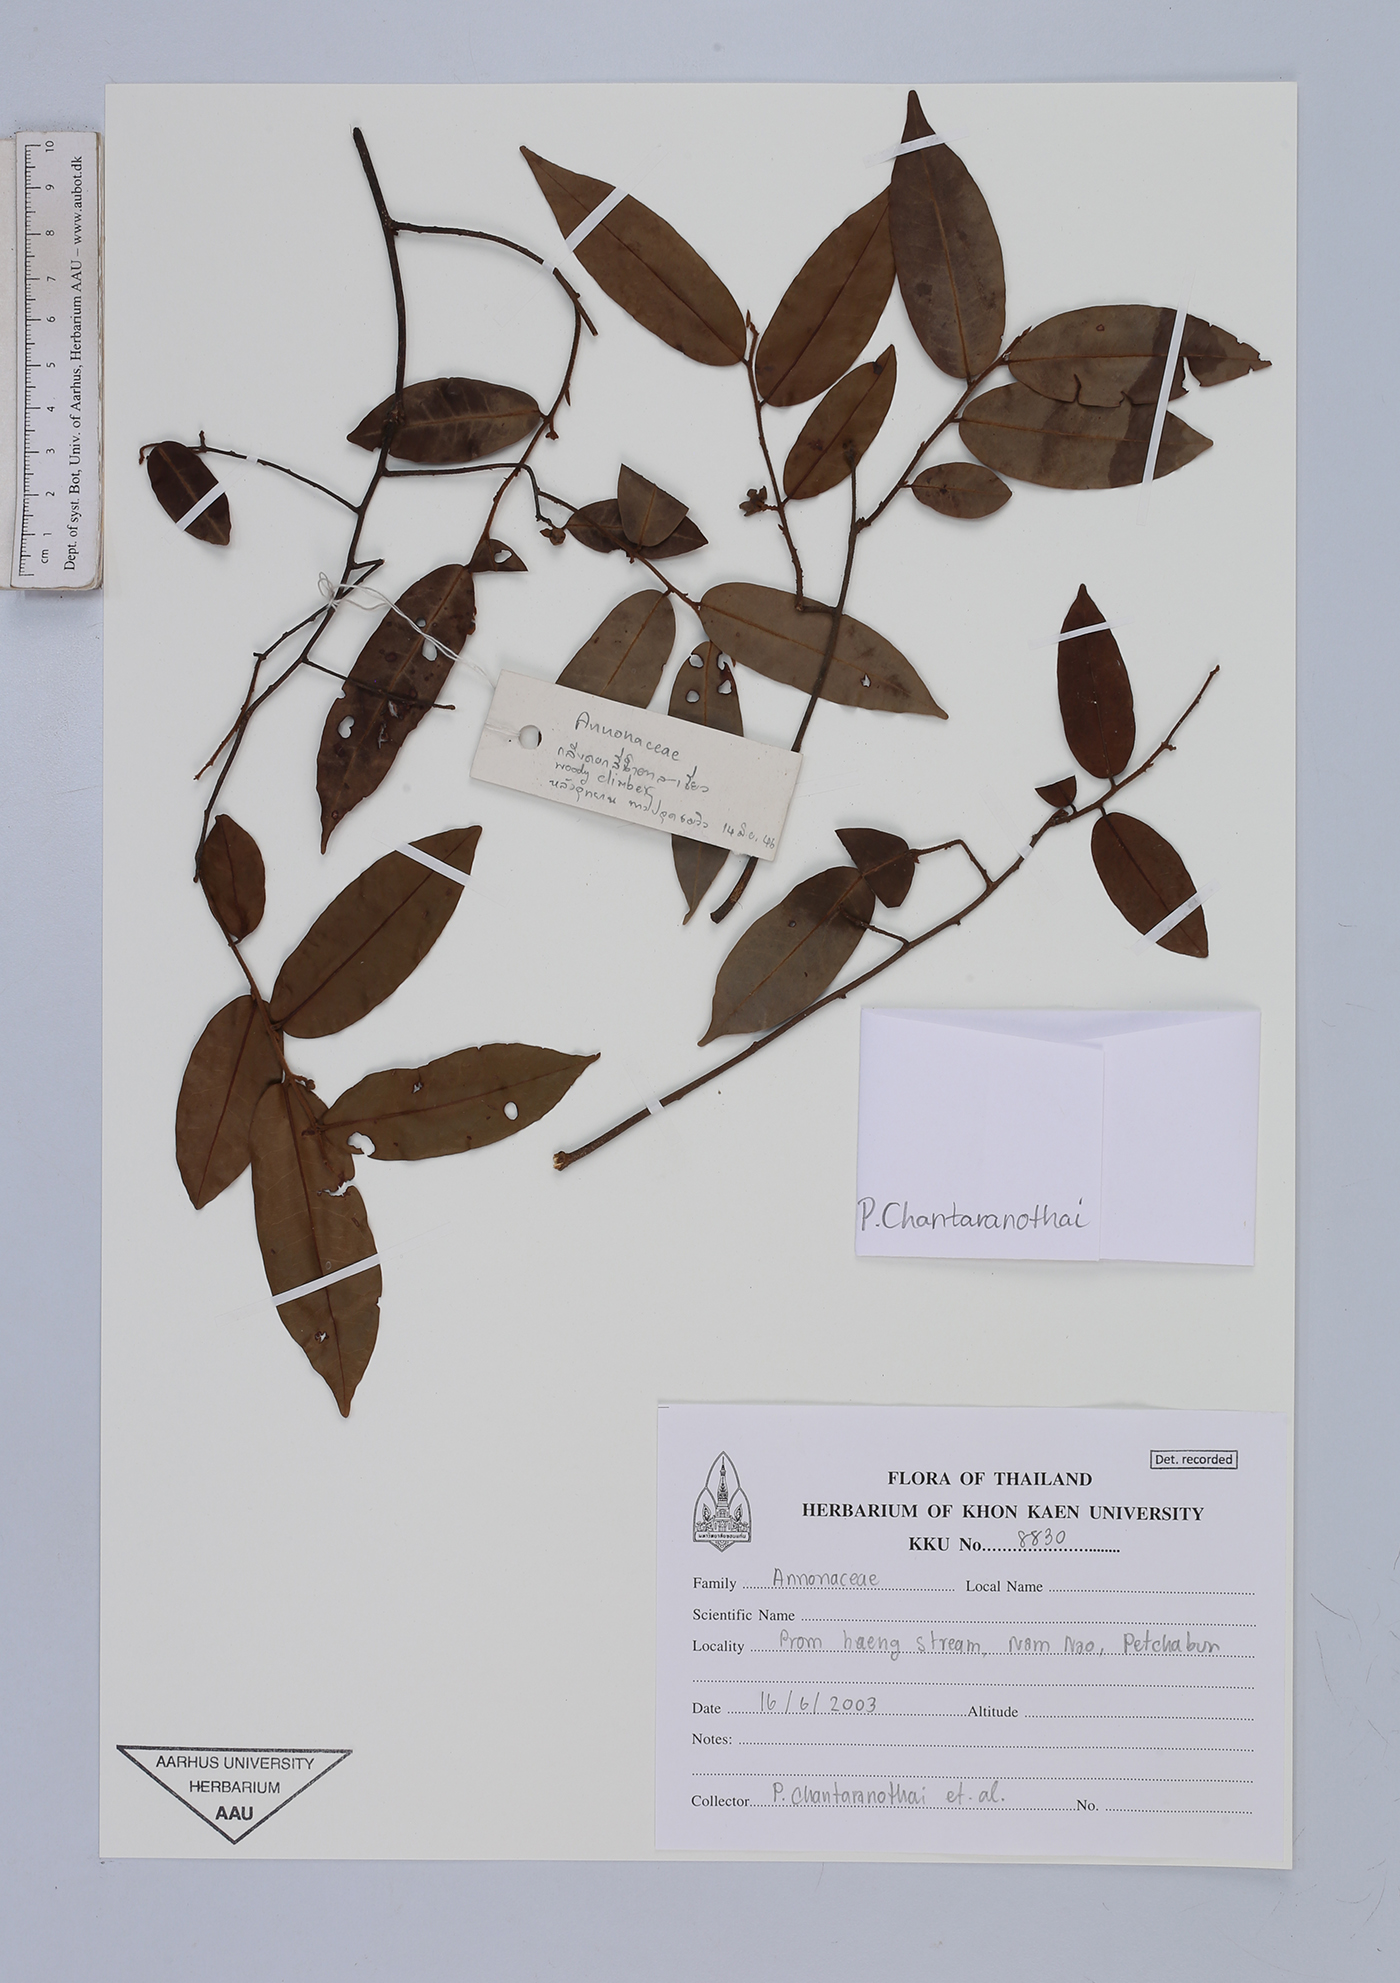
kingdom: Plantae
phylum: Tracheophyta
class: Magnoliopsida
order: Magnoliales
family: Annonaceae
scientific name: Annonaceae
